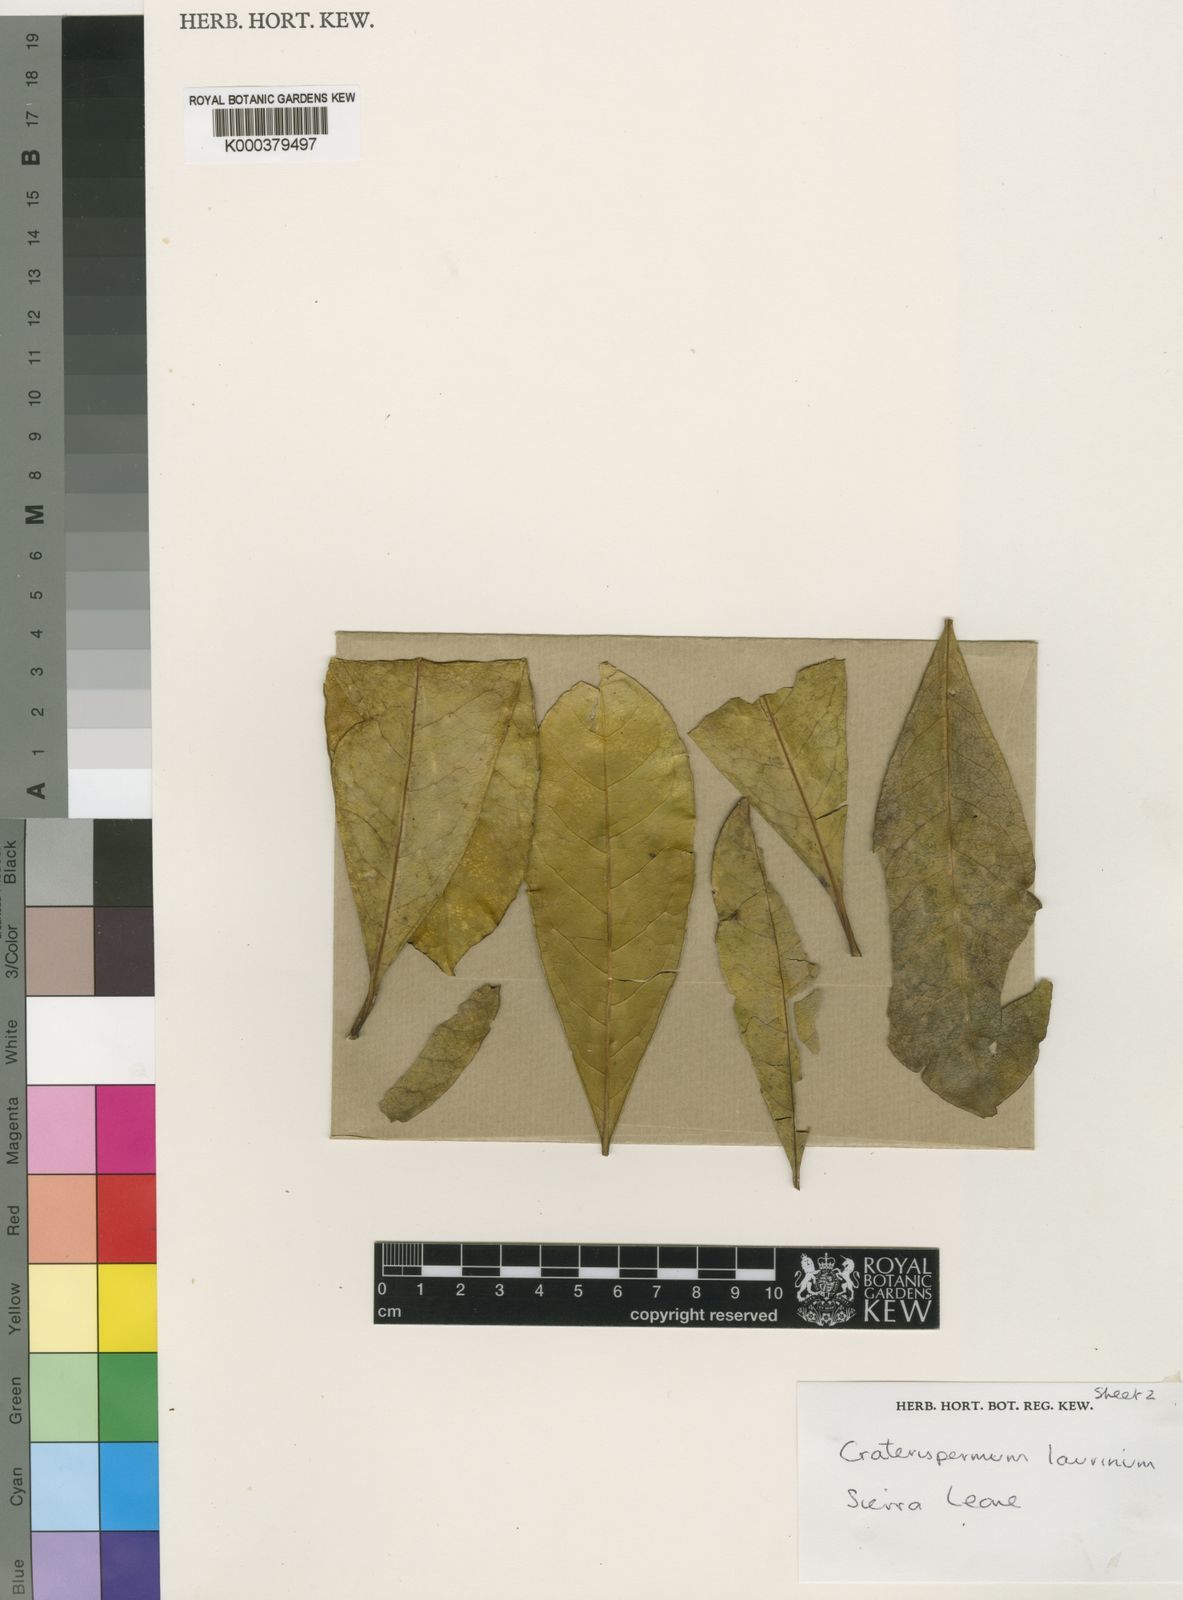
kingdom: Plantae
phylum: Tracheophyta
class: Magnoliopsida
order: Gentianales
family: Rubiaceae
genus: Craterispermum
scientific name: Craterispermum laurinum
